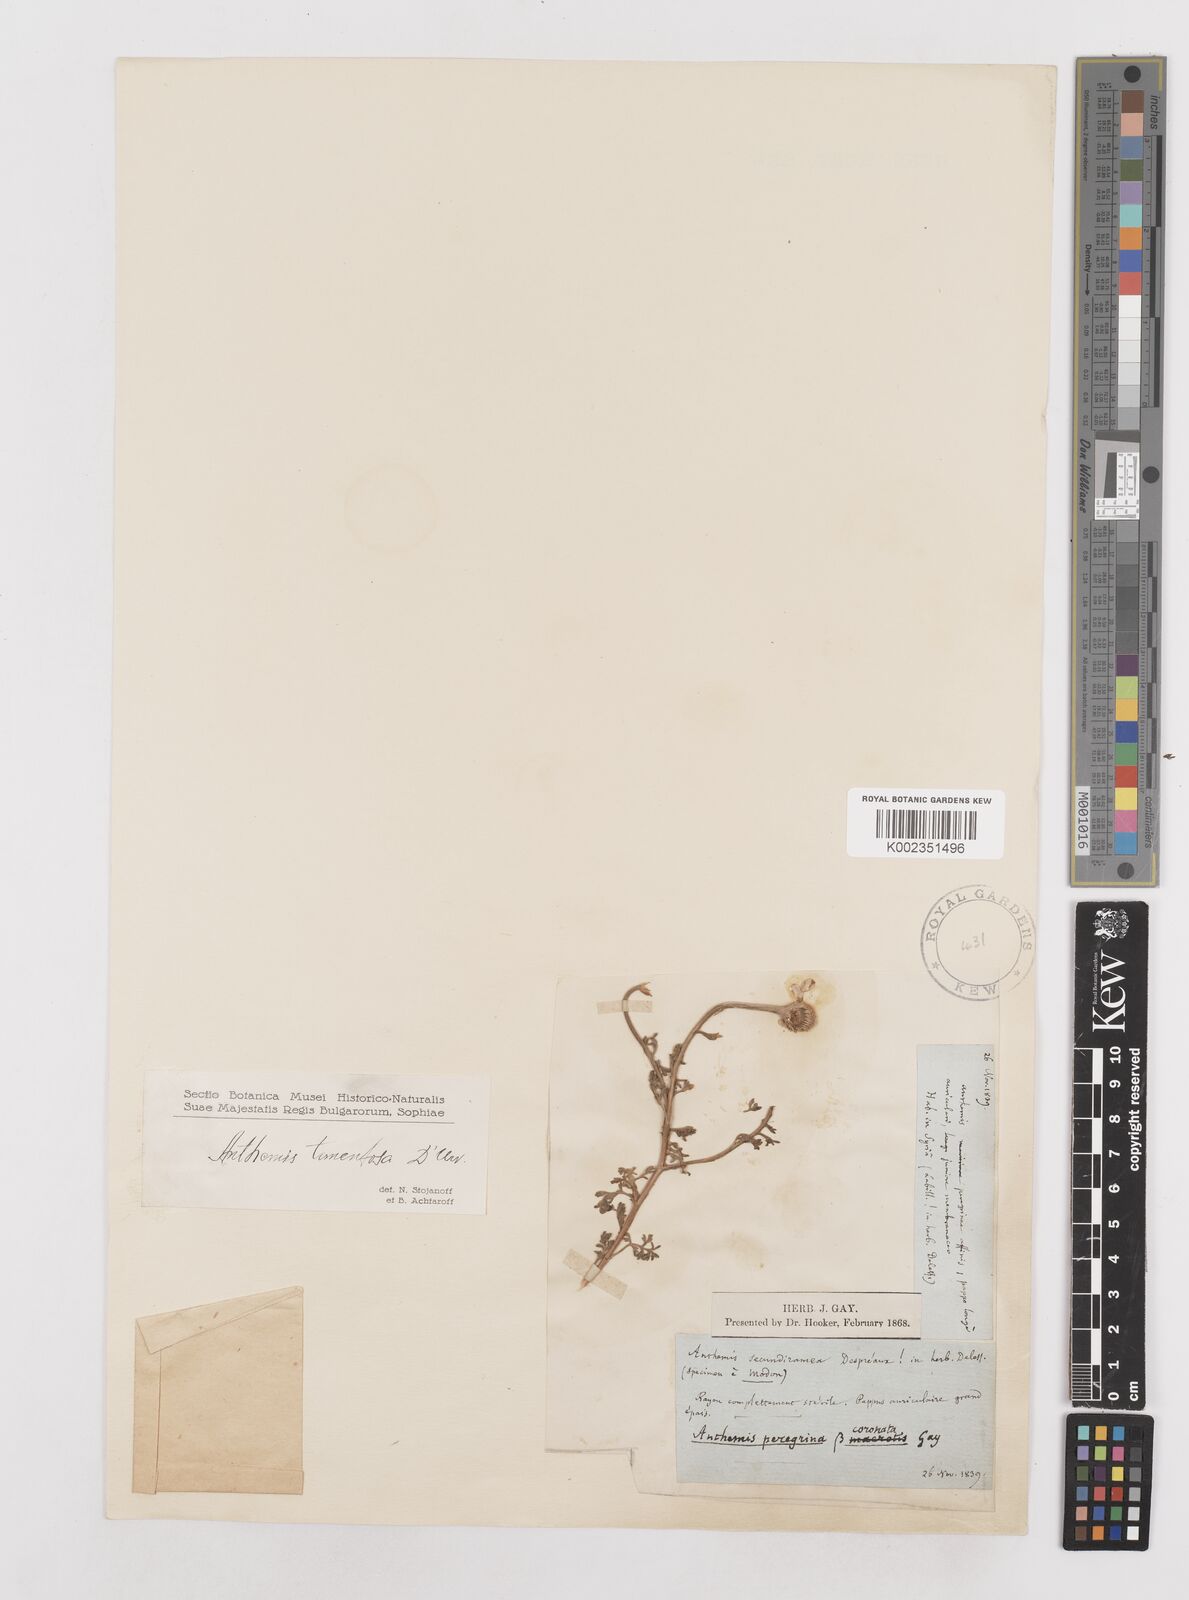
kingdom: Plantae
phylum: Tracheophyta
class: Magnoliopsida
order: Asterales
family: Asteraceae
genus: Anthemis
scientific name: Anthemis tomentosa
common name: Woolly chamomile
